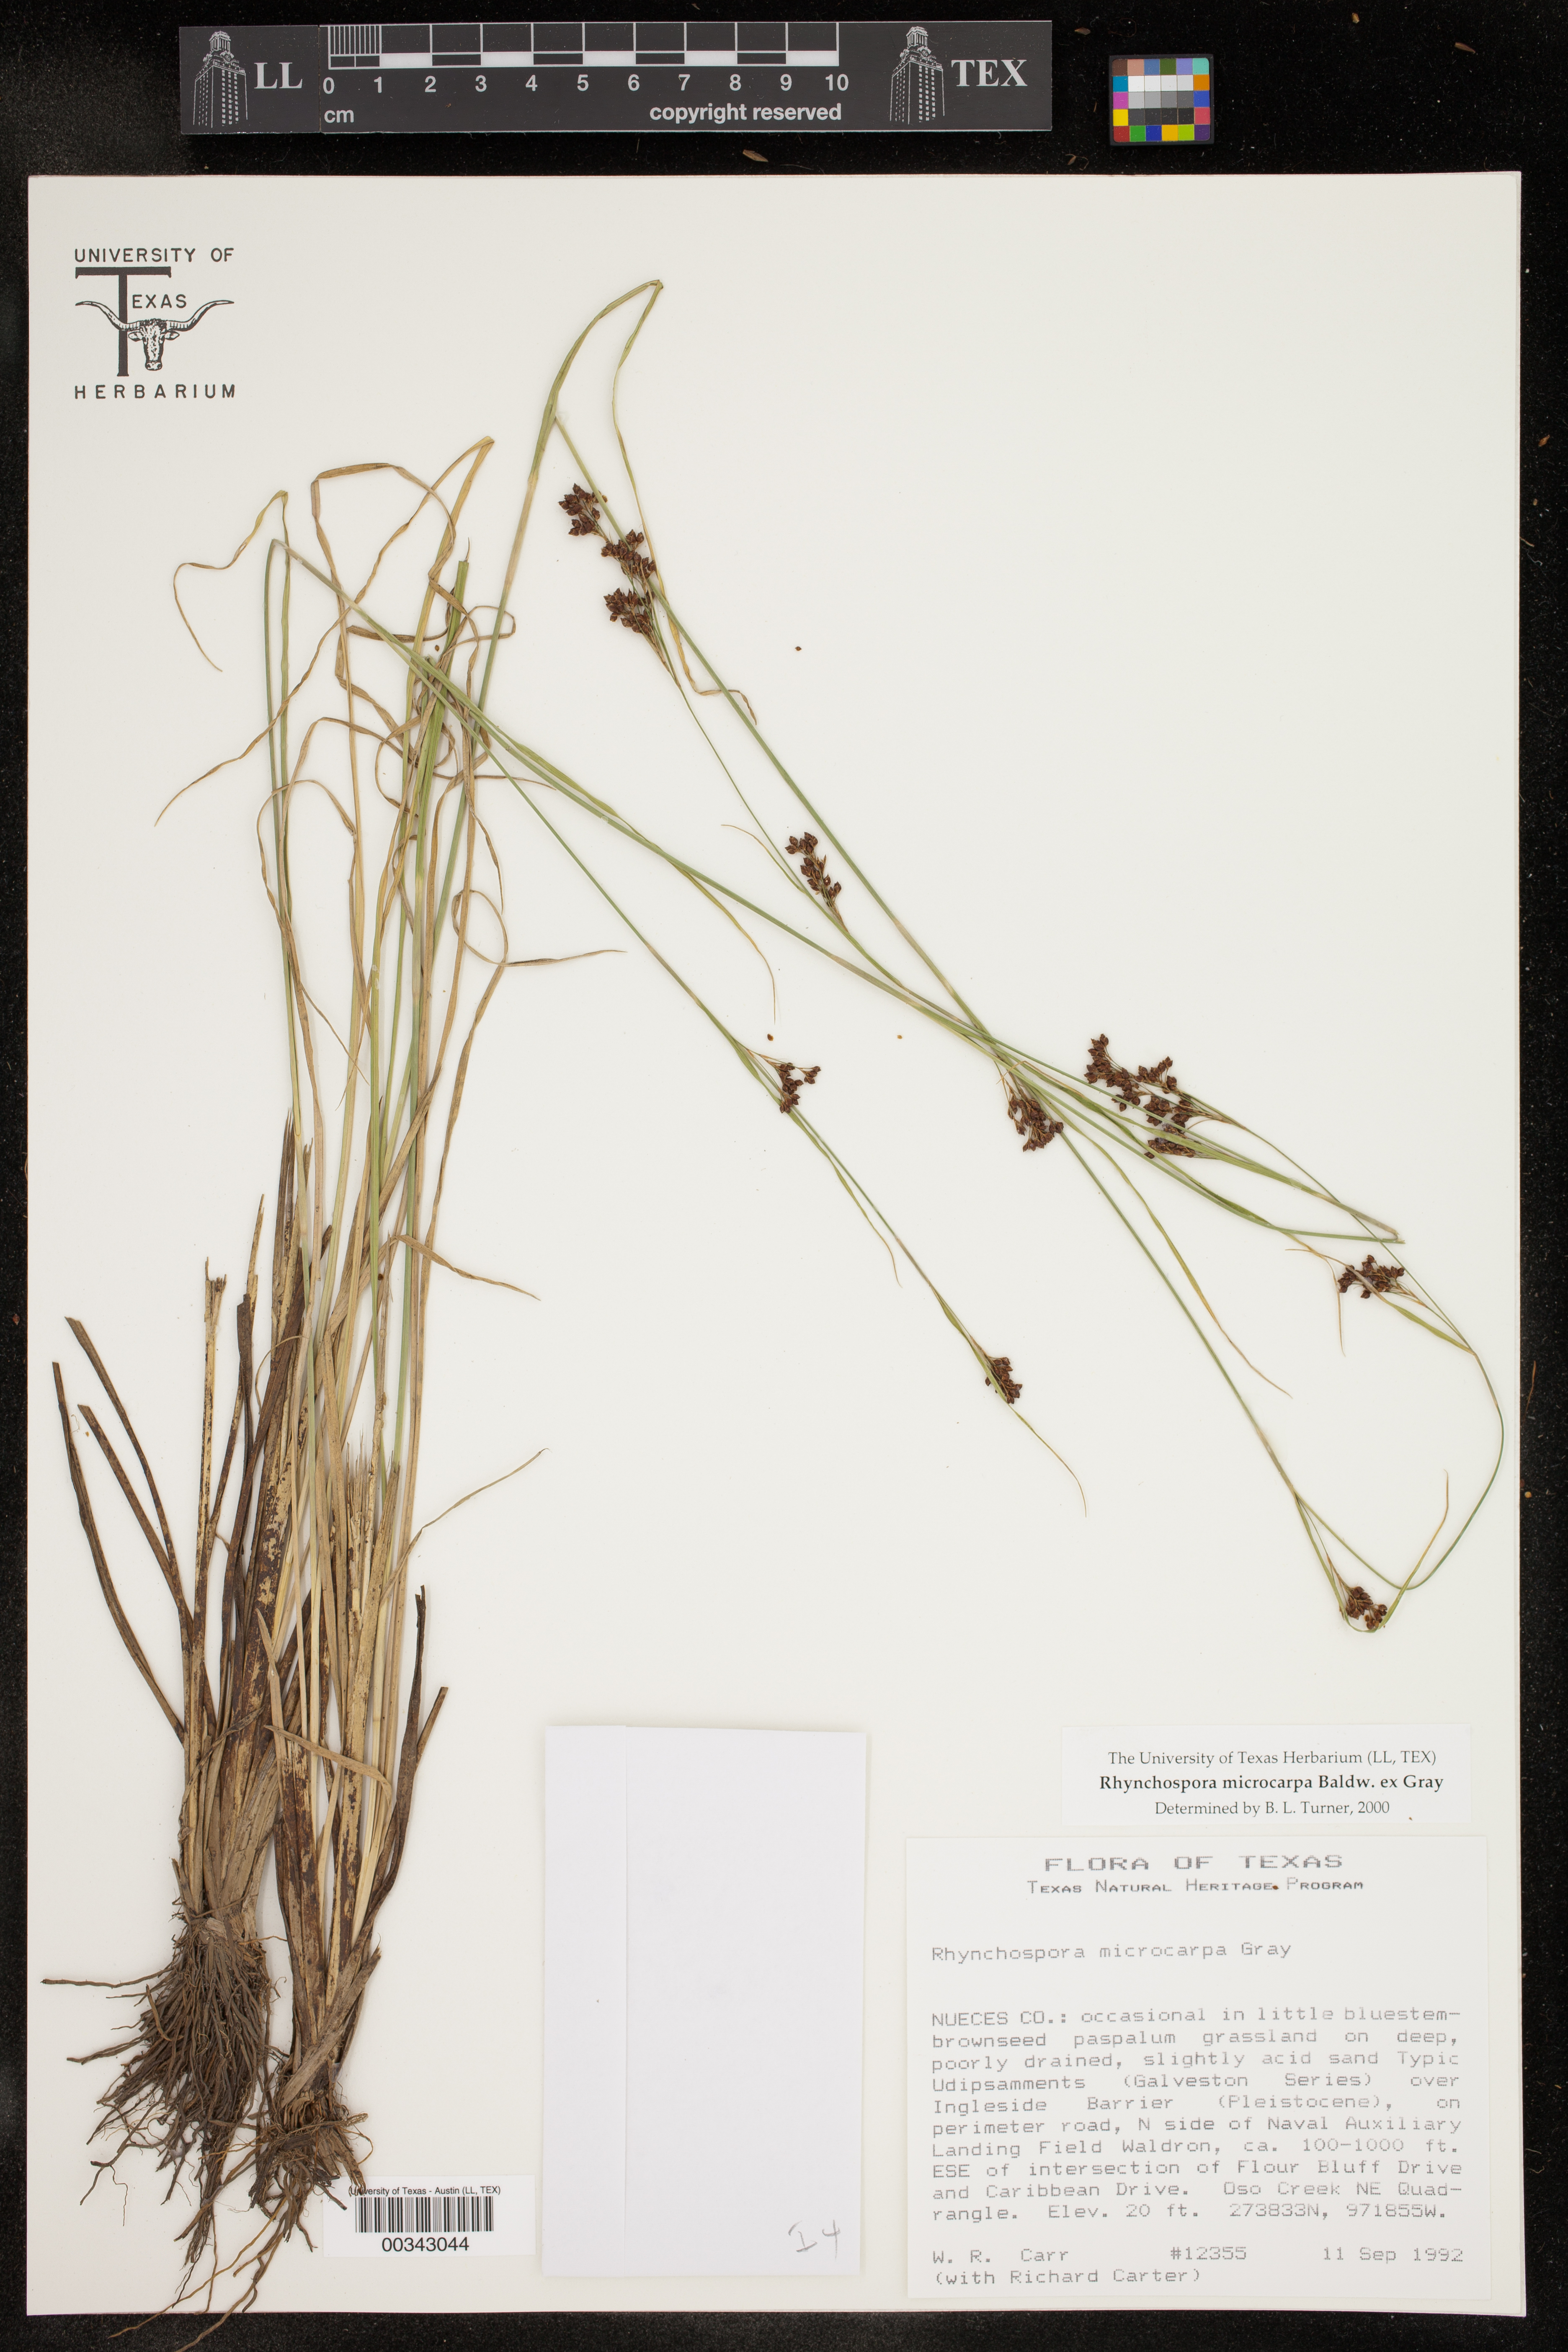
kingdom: Plantae
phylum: Tracheophyta
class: Liliopsida
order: Poales
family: Cyperaceae
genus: Rhynchospora
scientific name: Rhynchospora microcarpa
